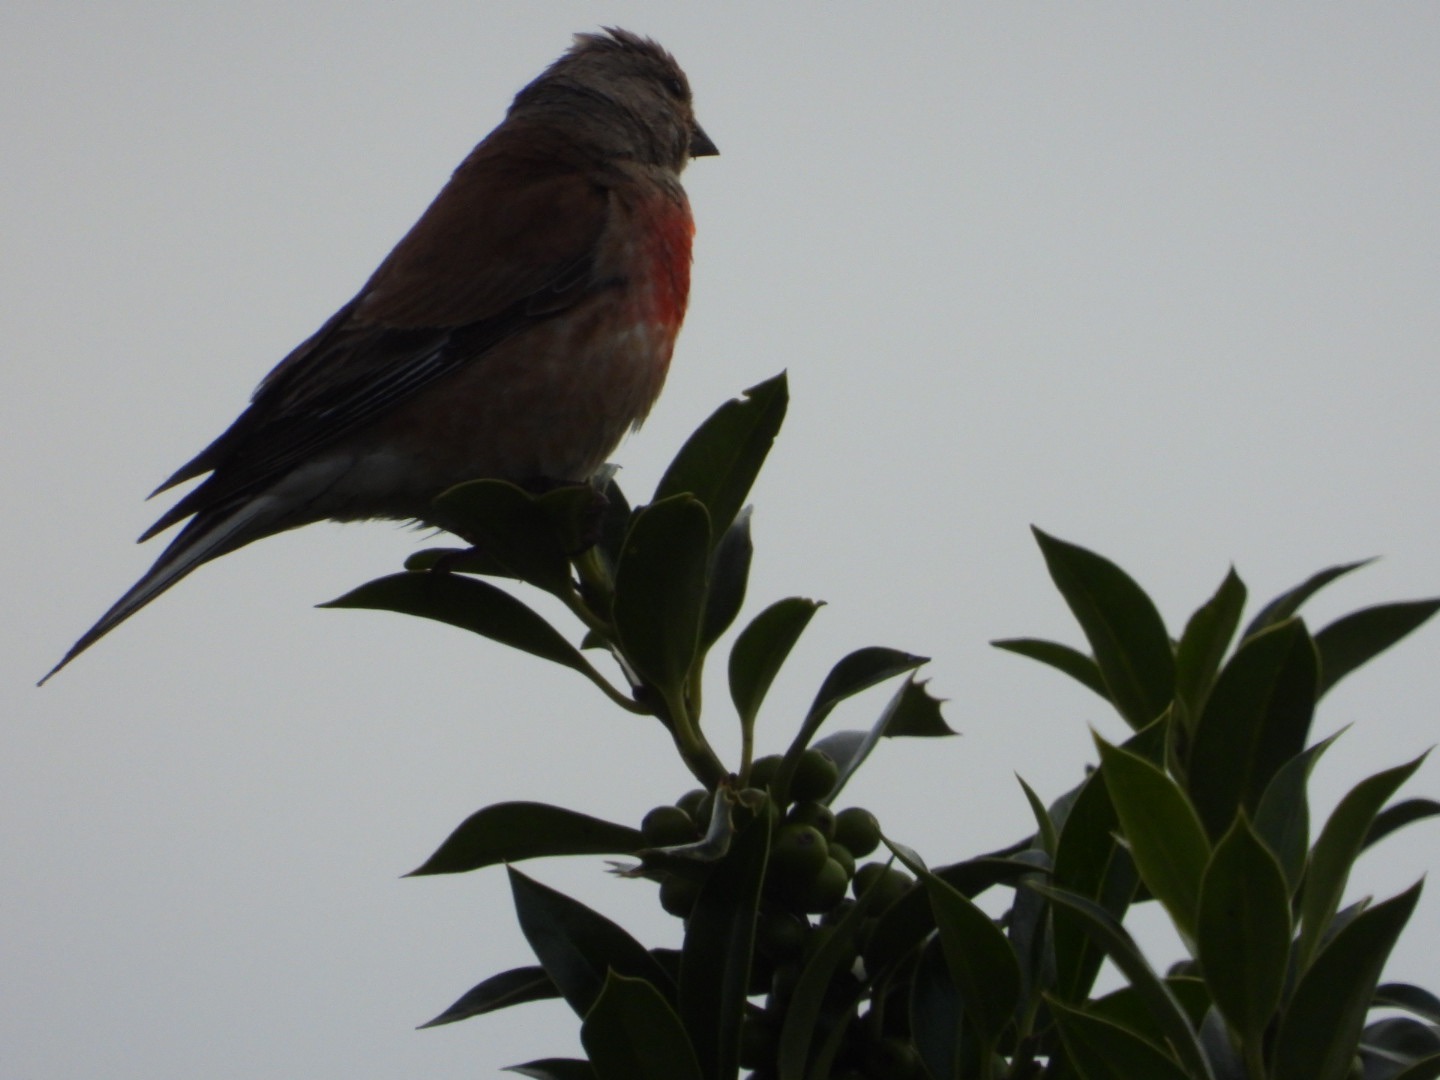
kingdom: Animalia
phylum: Chordata
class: Aves
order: Passeriformes
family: Fringillidae
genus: Linaria
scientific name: Linaria cannabina
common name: Tornirisk
